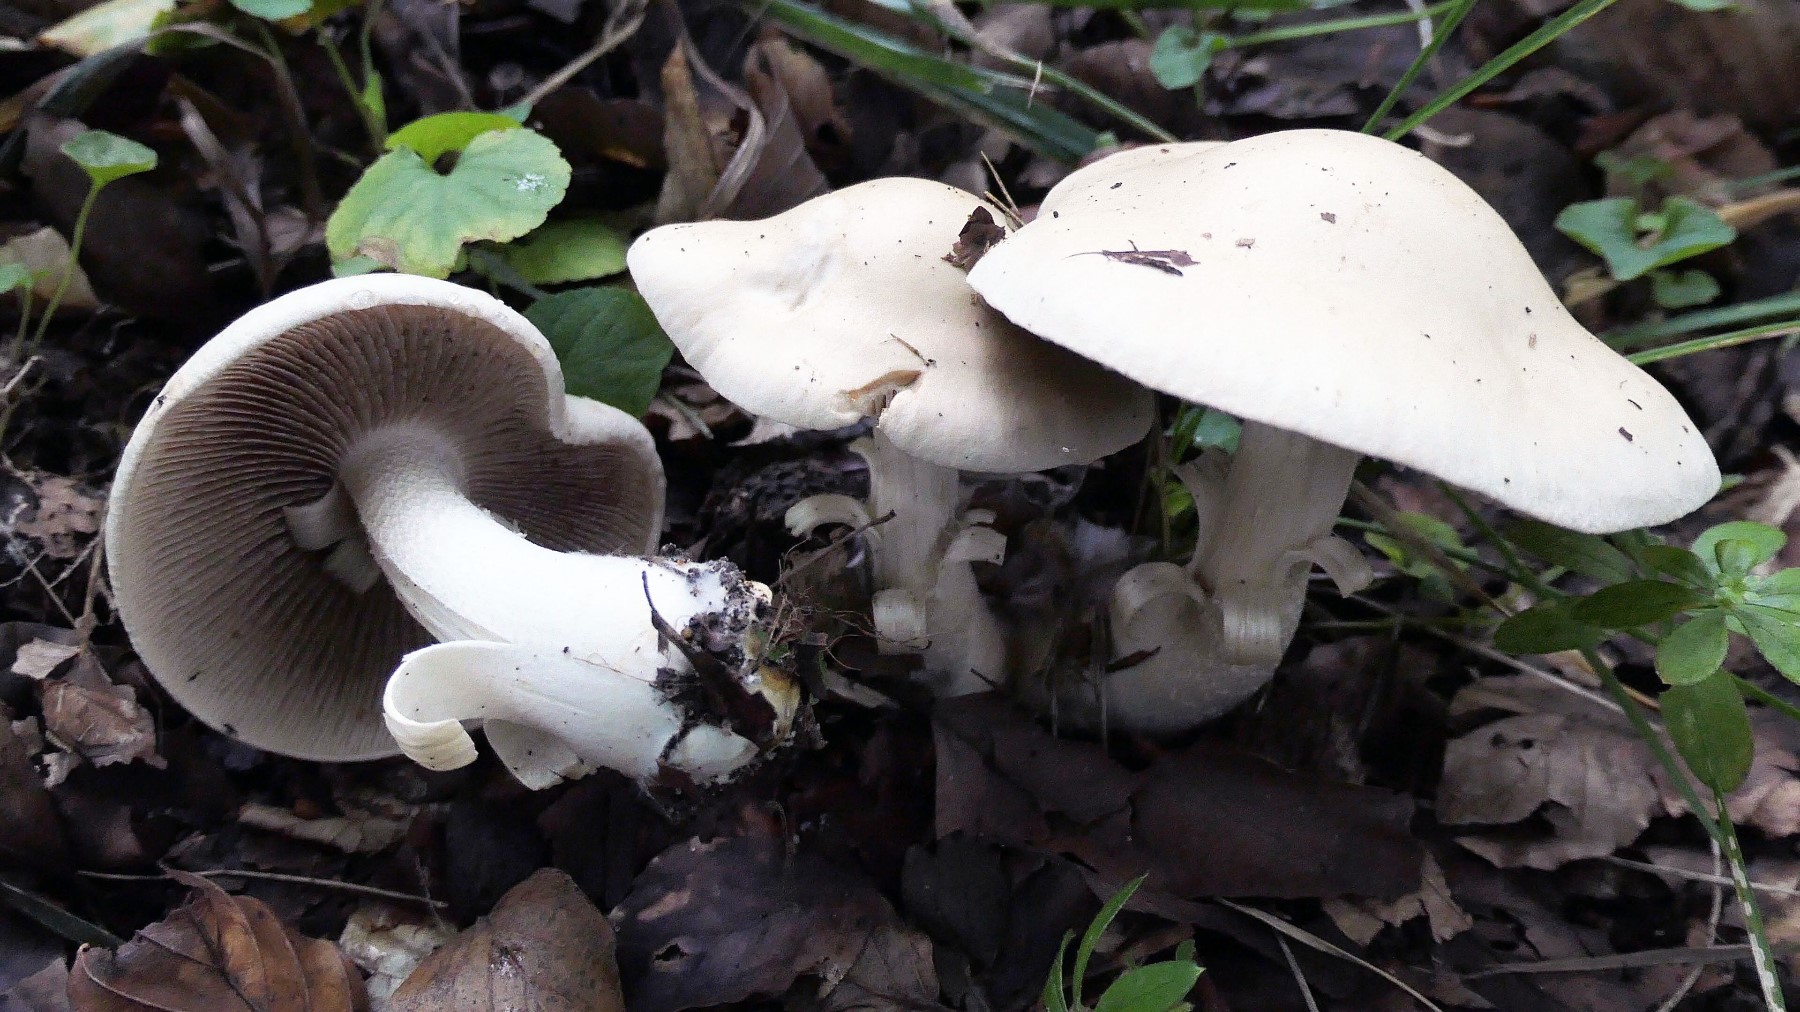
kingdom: Fungi
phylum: Basidiomycota
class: Agaricomycetes
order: Agaricales
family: Hymenogastraceae
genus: Hebeloma
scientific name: Hebeloma
